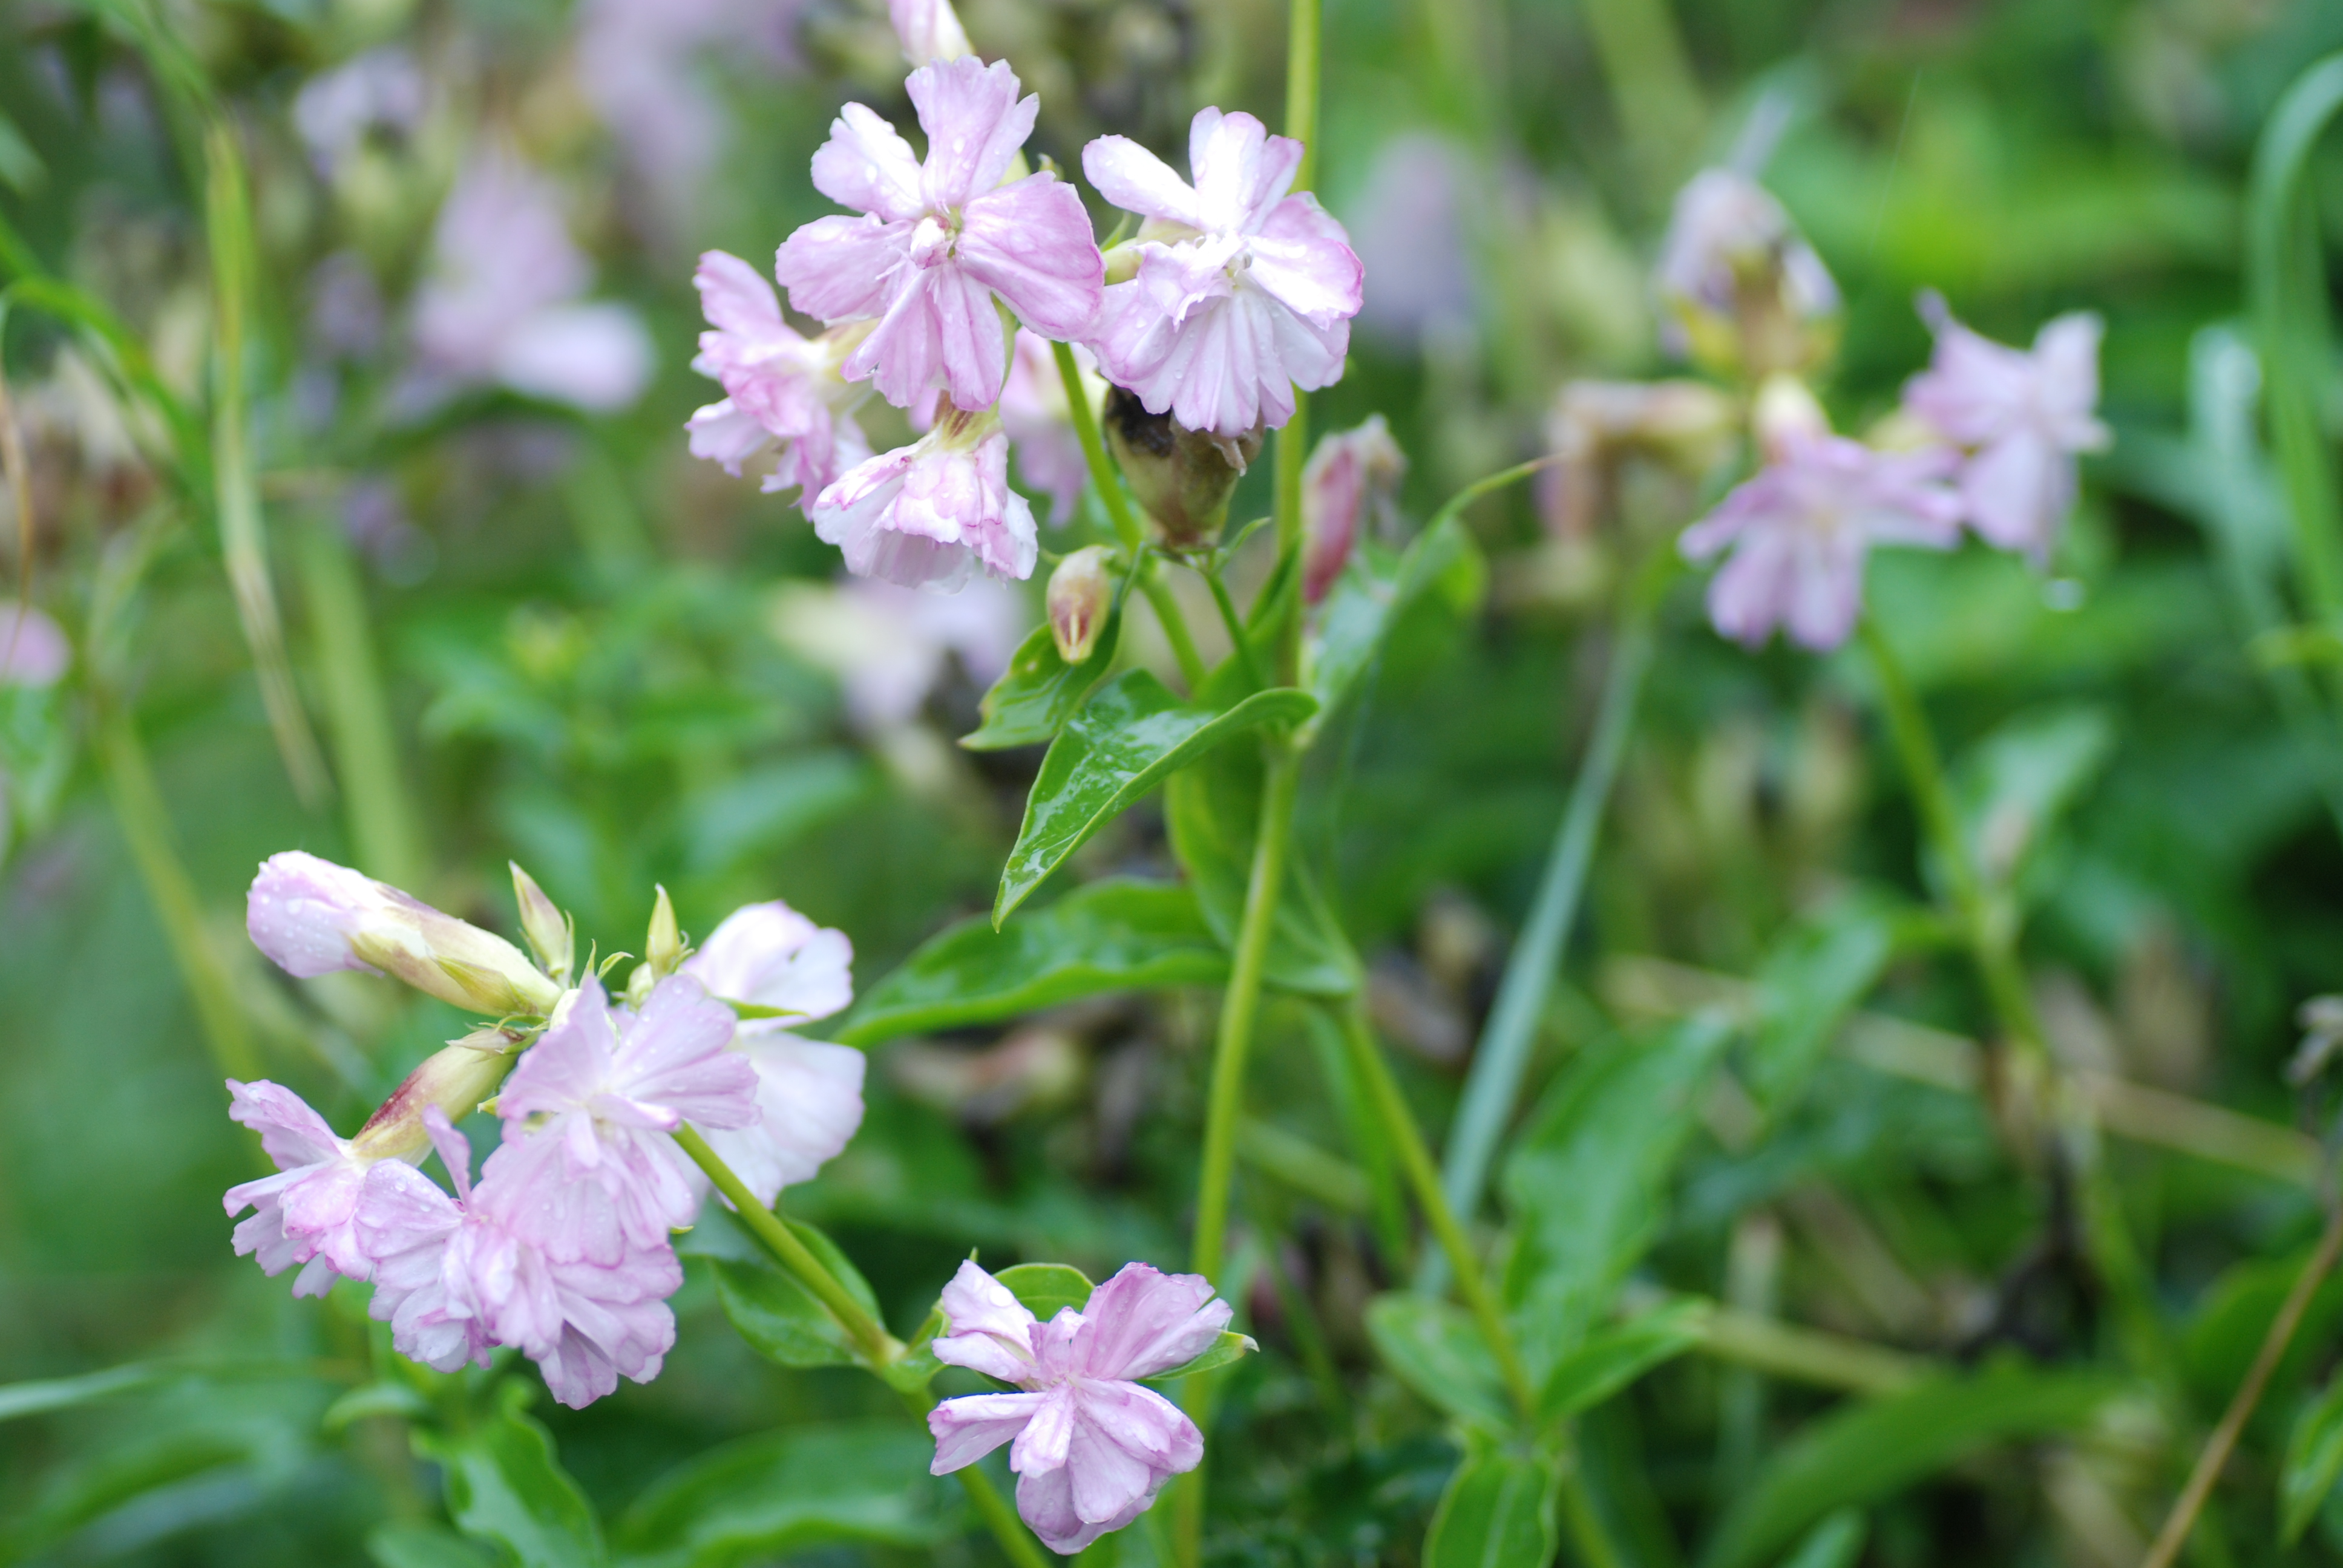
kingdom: Plantae
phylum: Tracheophyta
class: Magnoliopsida
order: Caryophyllales
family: Caryophyllaceae
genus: Saponaria
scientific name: Saponaria officinalis
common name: Soapwort
